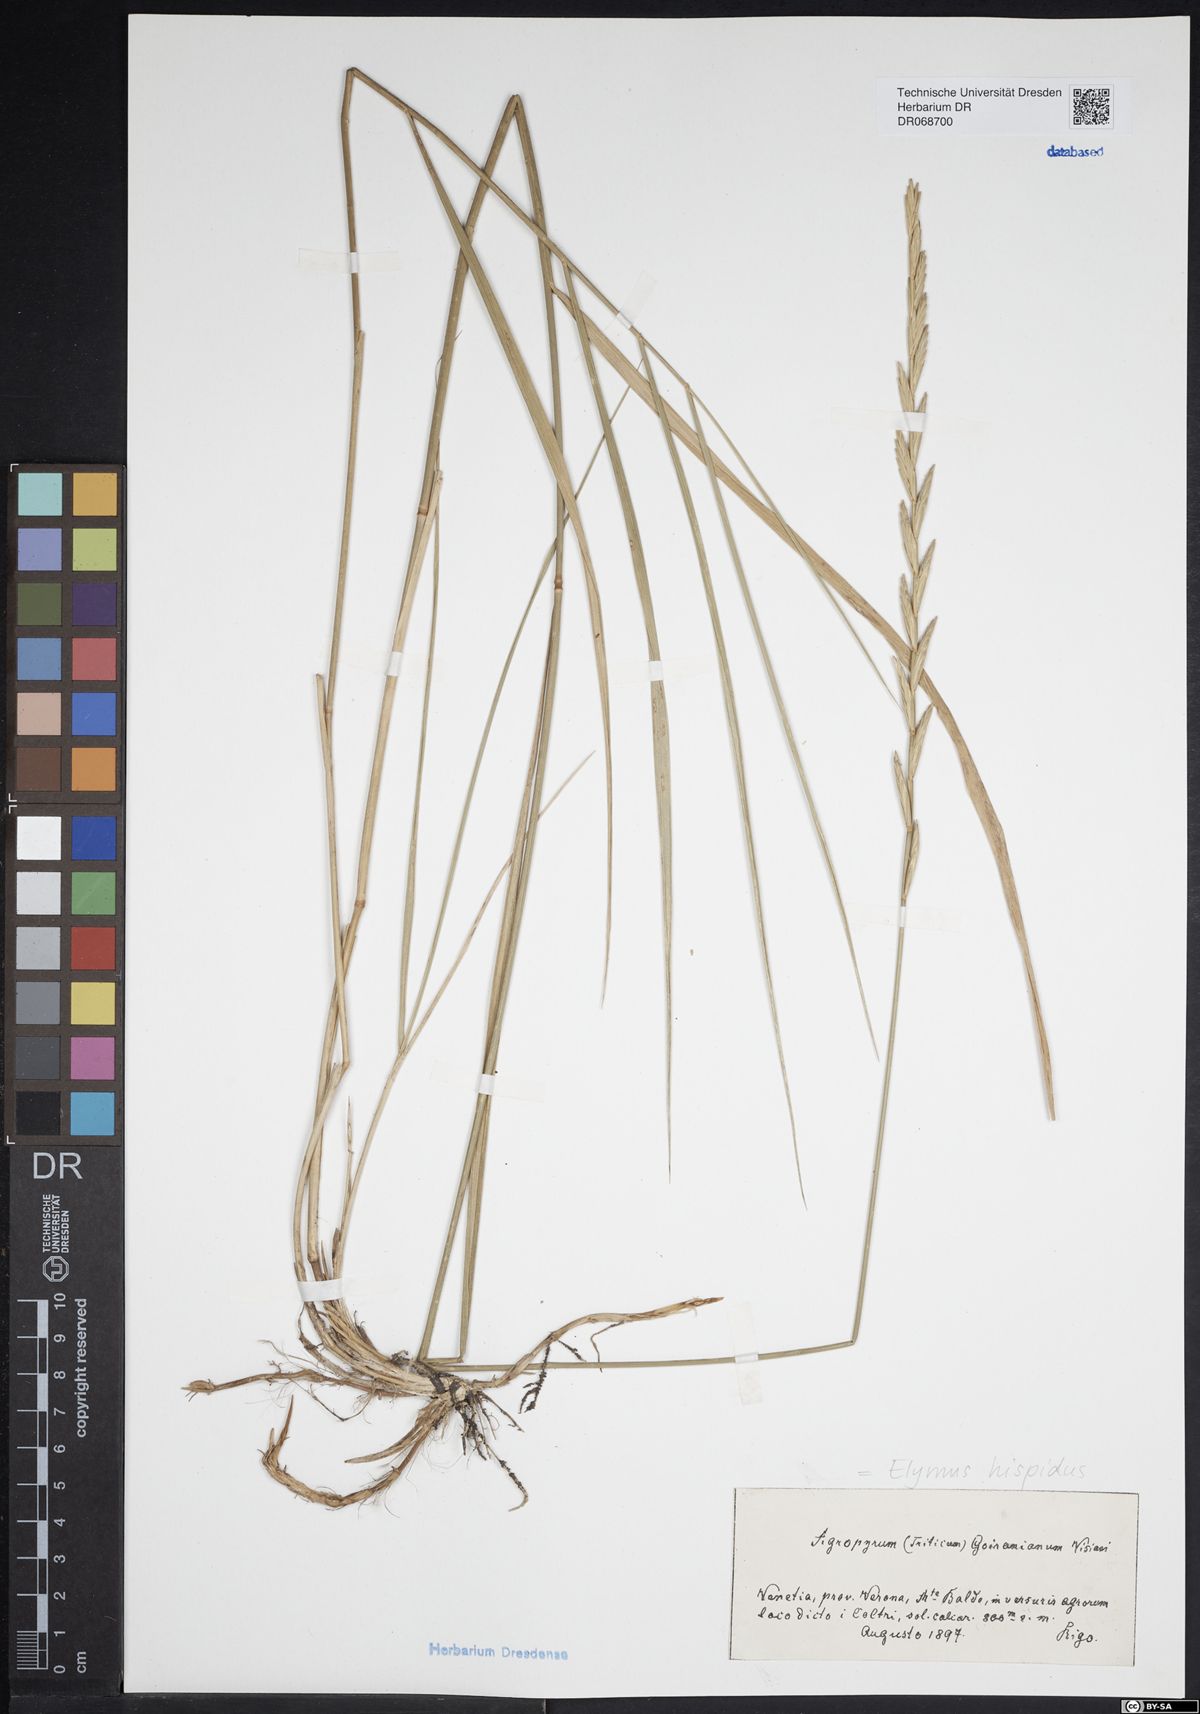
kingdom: Plantae
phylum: Tracheophyta
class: Liliopsida
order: Poales
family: Poaceae
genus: Thinopyrum
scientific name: Thinopyrum intermedium
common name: Intermediate wheatgrass
